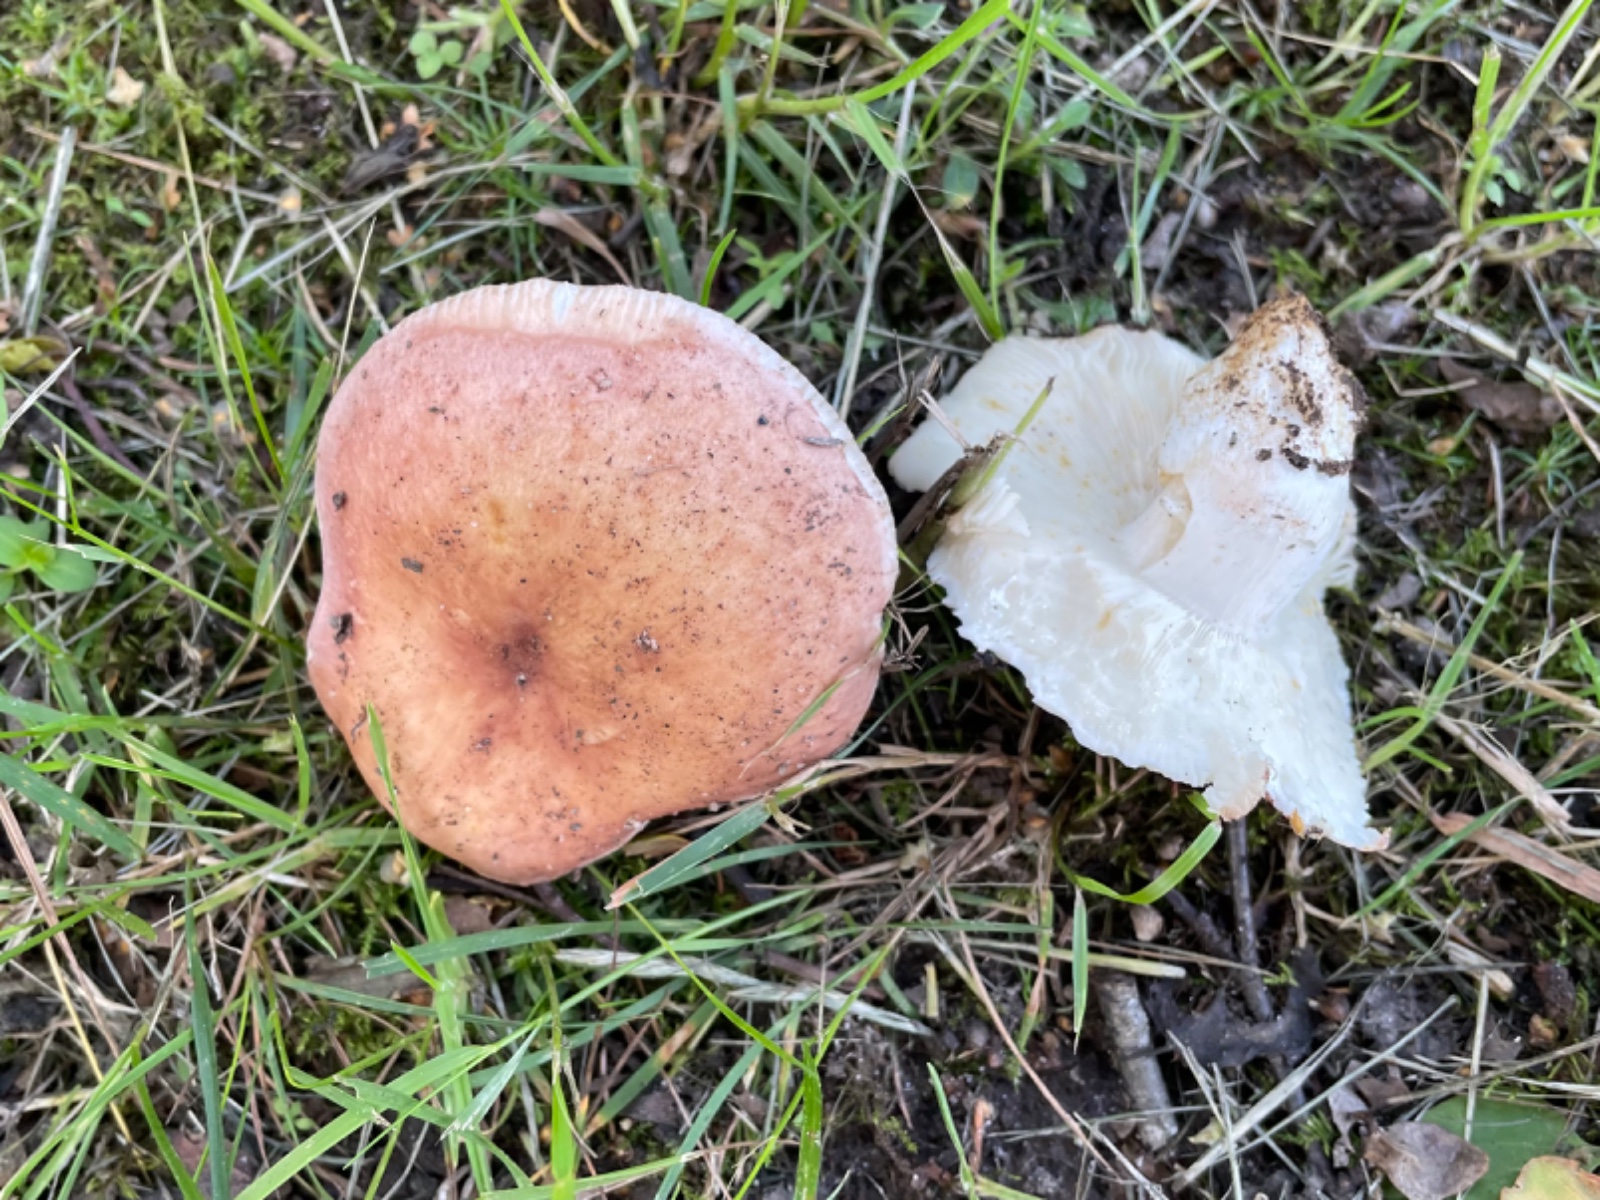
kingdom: Fungi
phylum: Basidiomycota
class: Agaricomycetes
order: Russulales
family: Russulaceae
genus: Russula
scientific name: Russula
